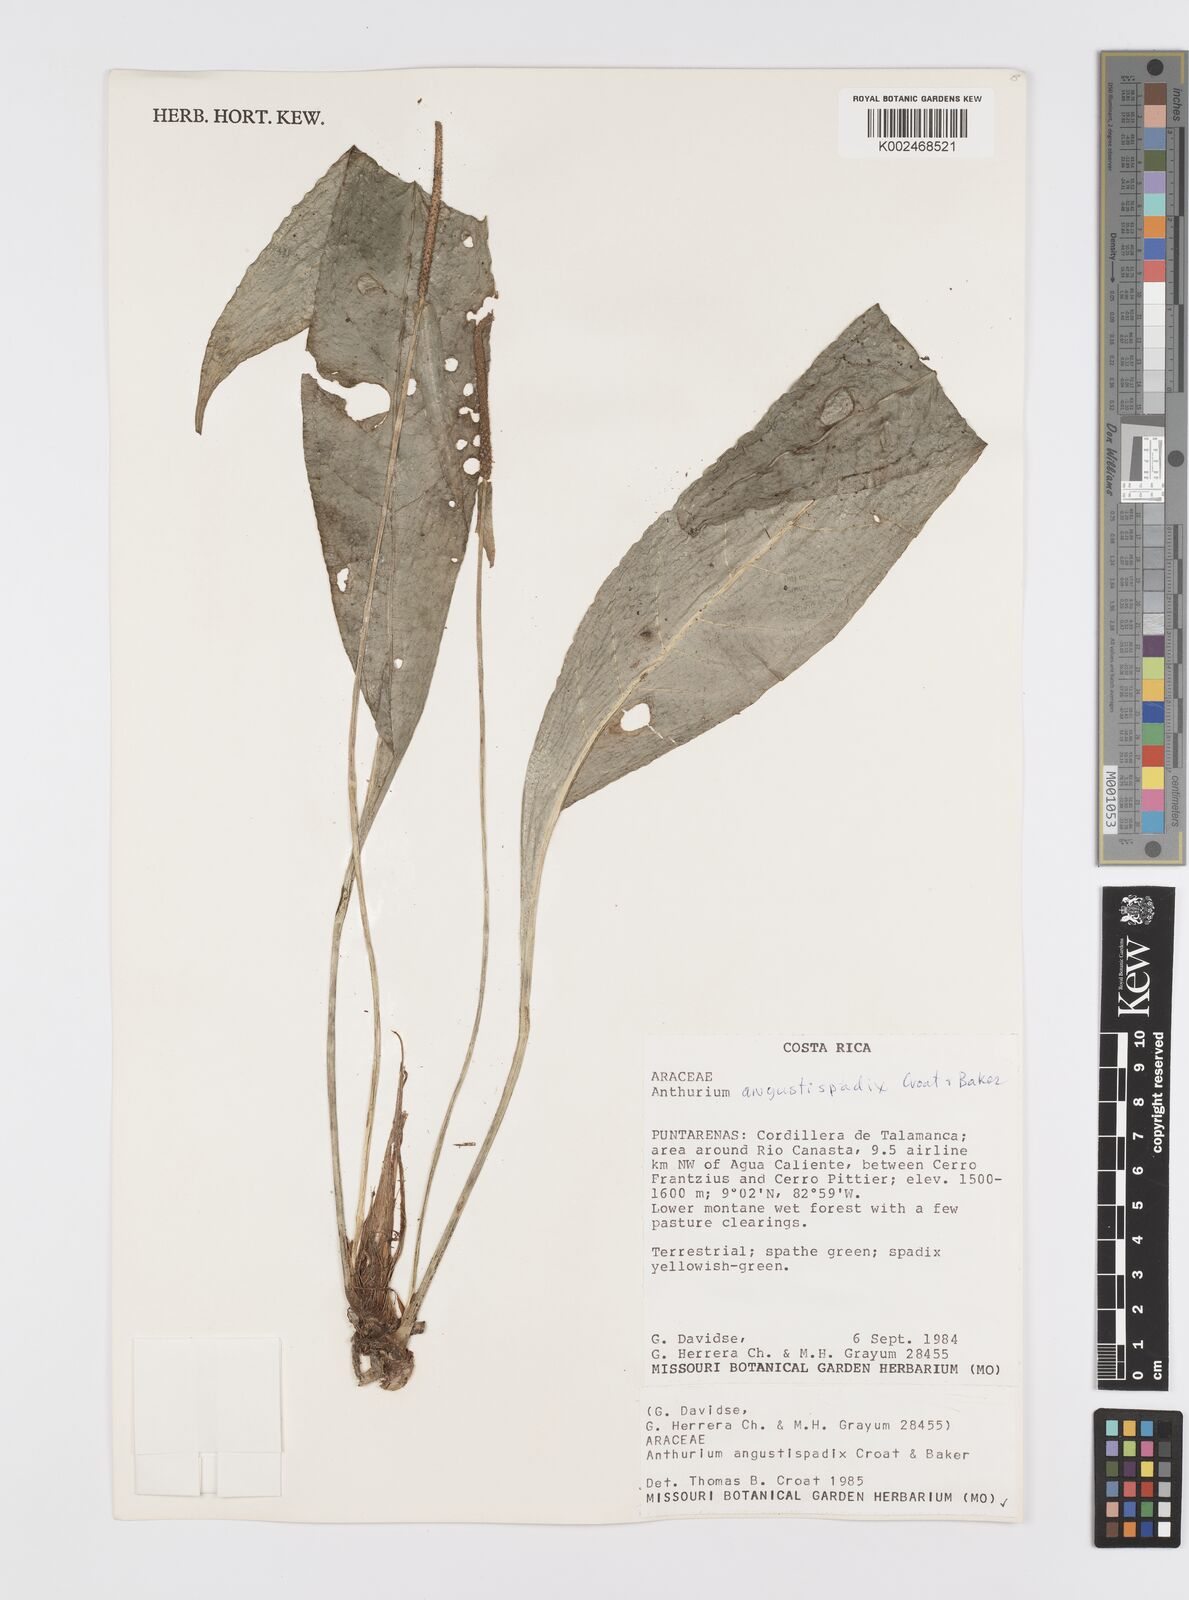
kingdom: Plantae
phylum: Tracheophyta
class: Liliopsida
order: Alismatales
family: Araceae
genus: Anthurium
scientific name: Anthurium angustispadix
